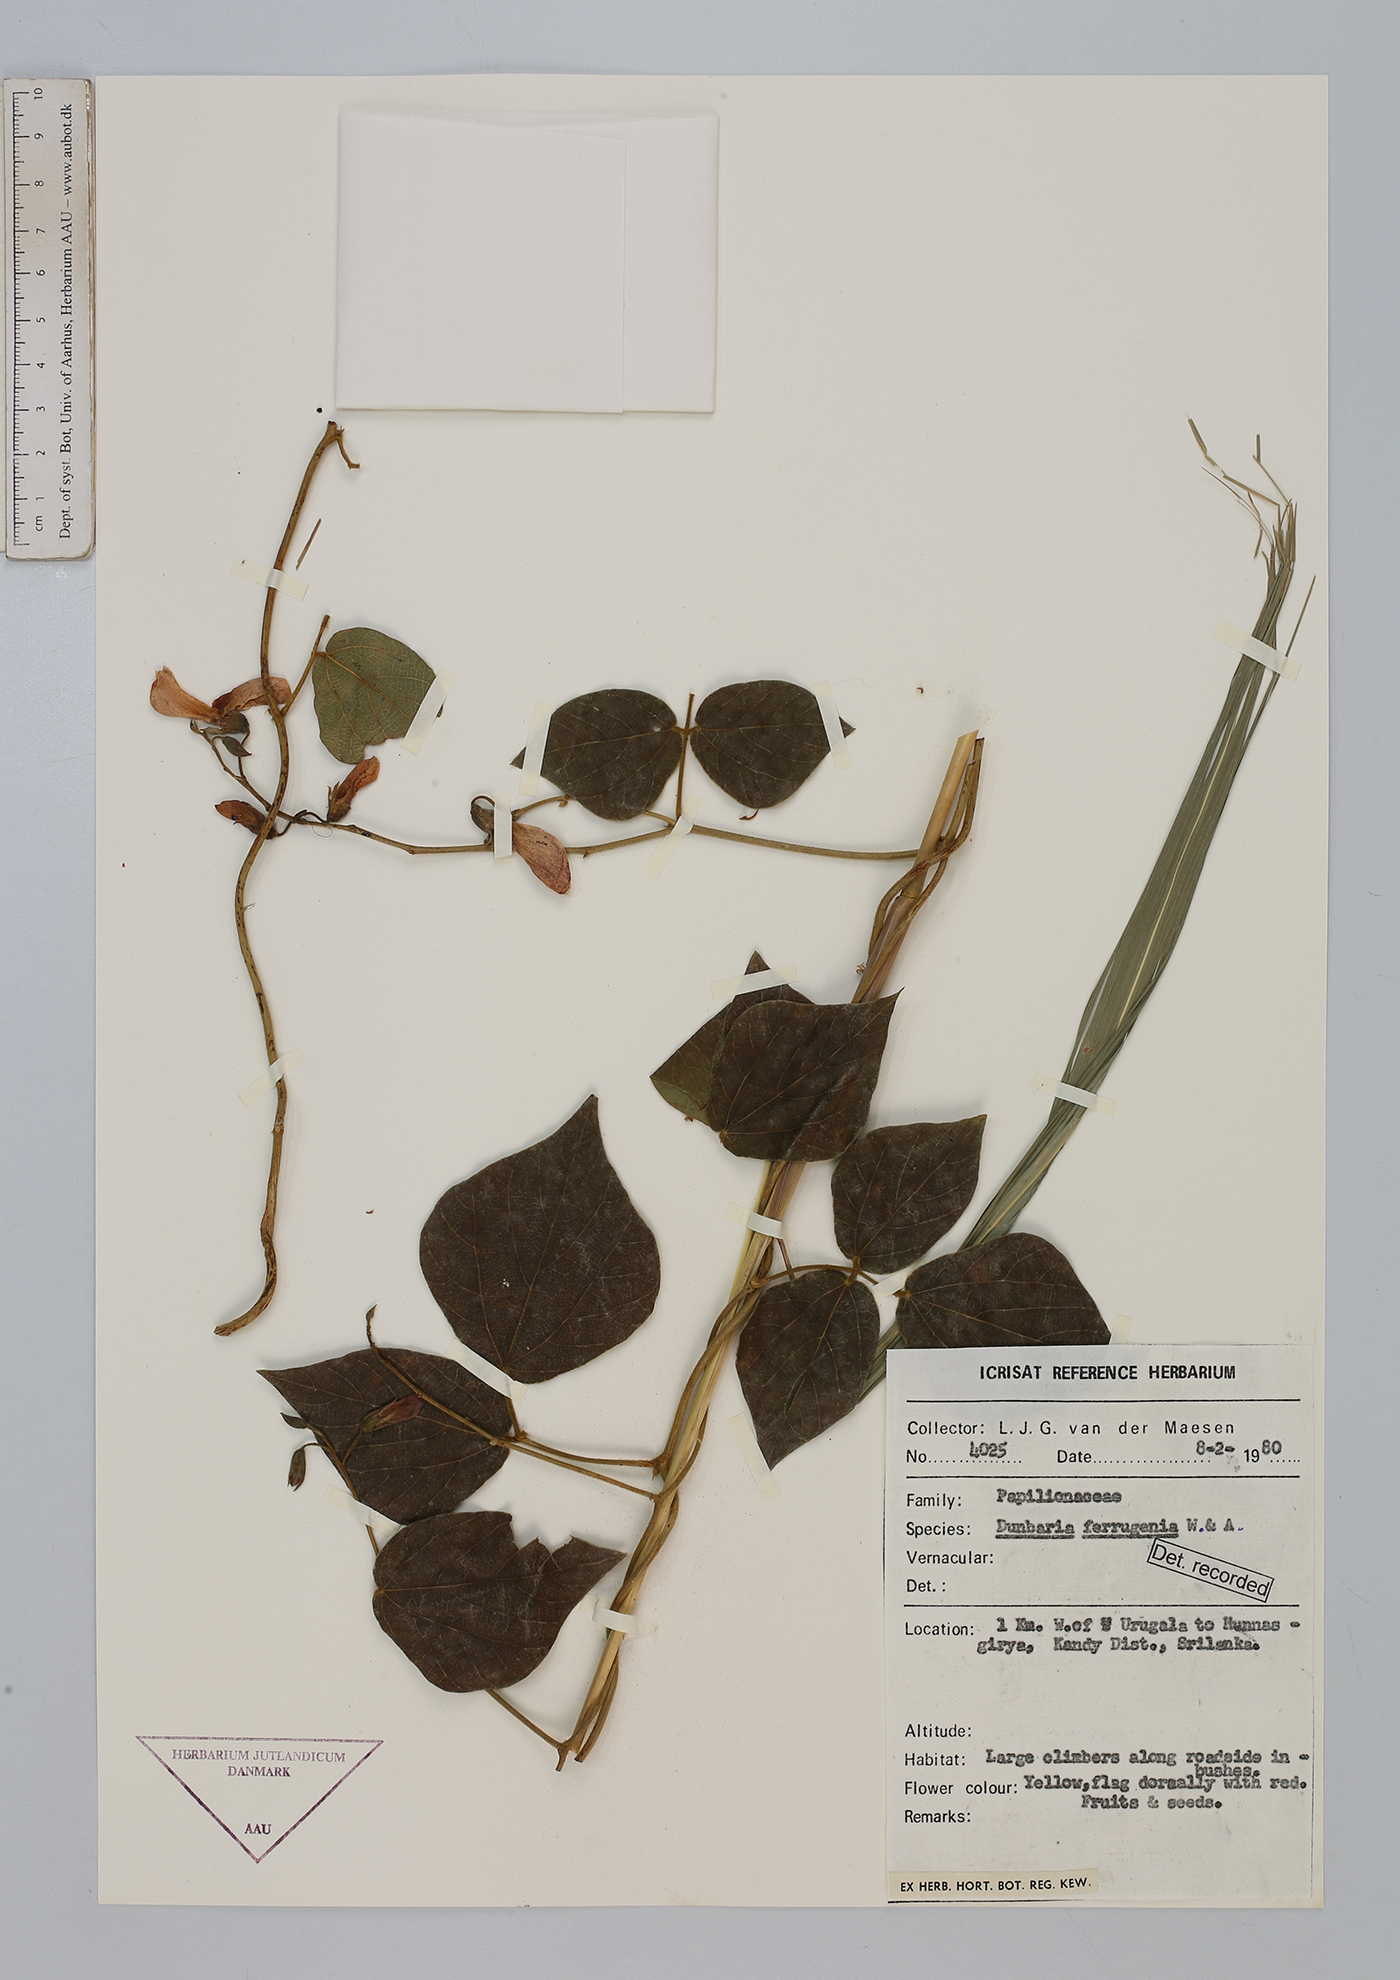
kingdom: Plantae
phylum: Tracheophyta
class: Magnoliopsida
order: Fabales
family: Fabaceae
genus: Dunbaria
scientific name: Dunbaria ferruginea
